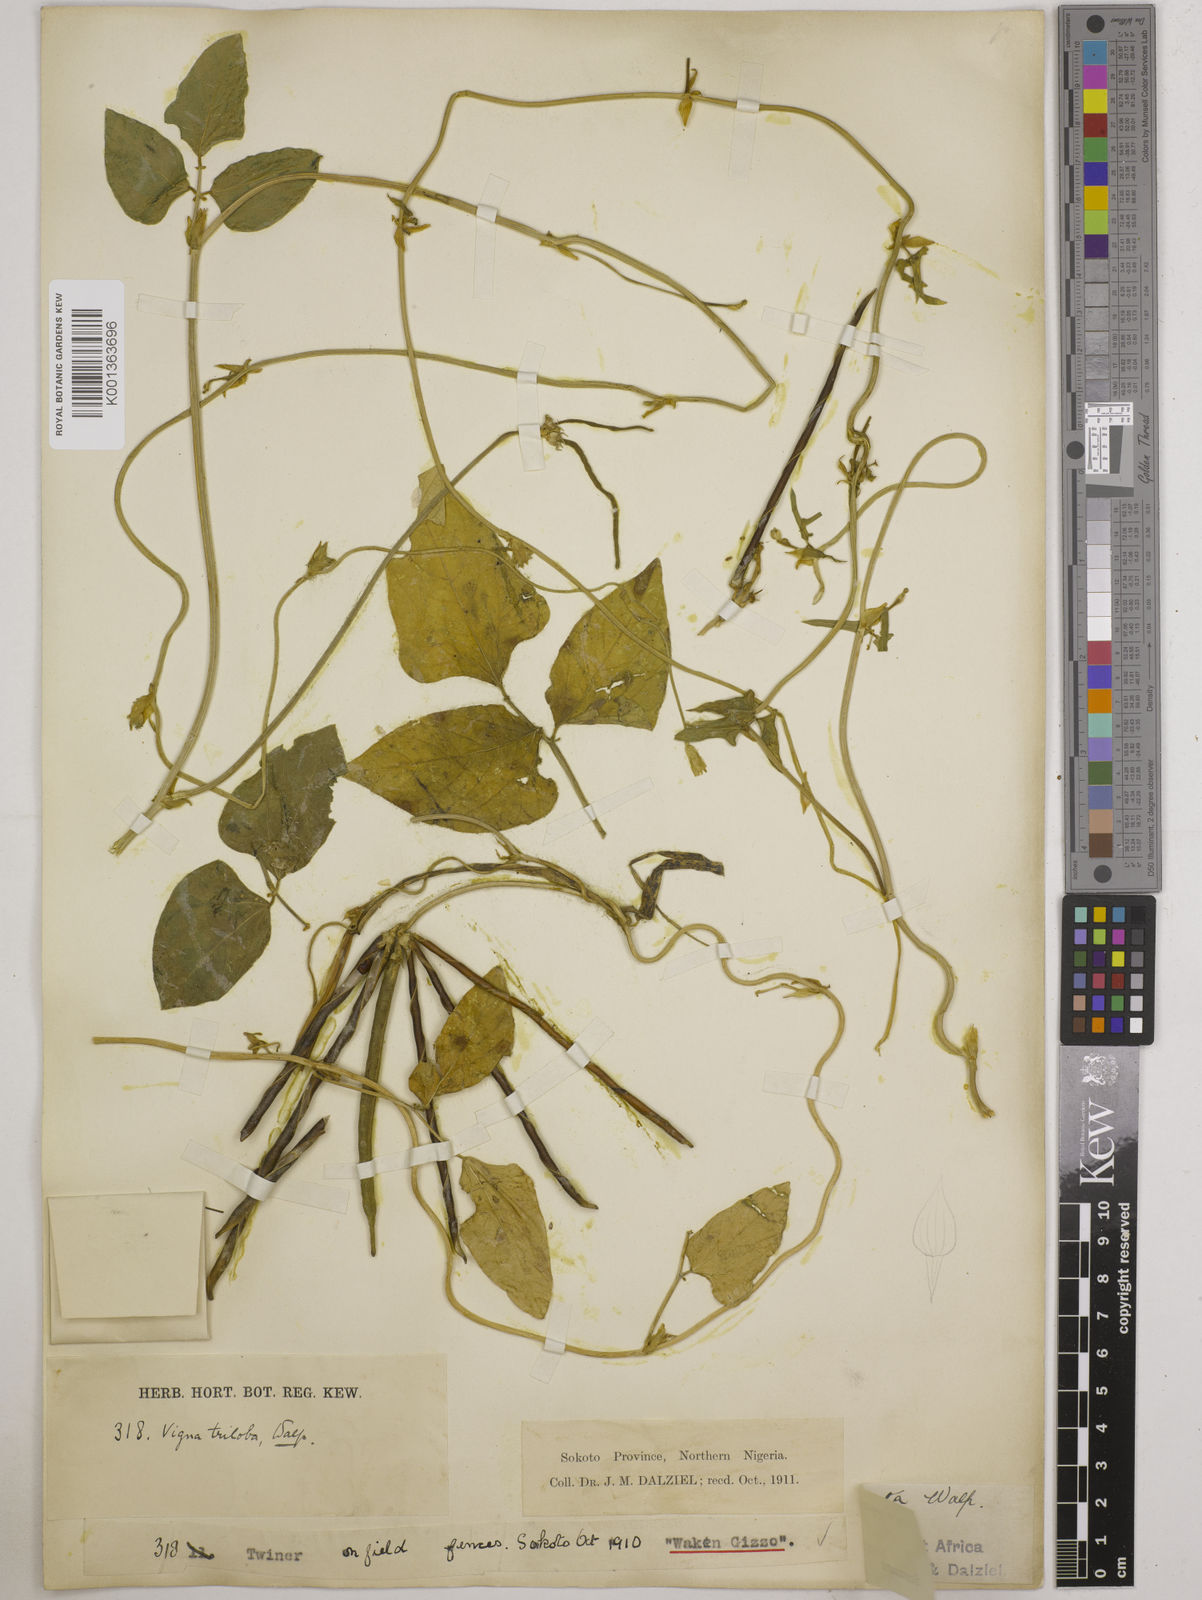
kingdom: Plantae
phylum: Tracheophyta
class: Magnoliopsida
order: Fabales
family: Fabaceae
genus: Vigna
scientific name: Vigna unguiculata
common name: Cowpea
